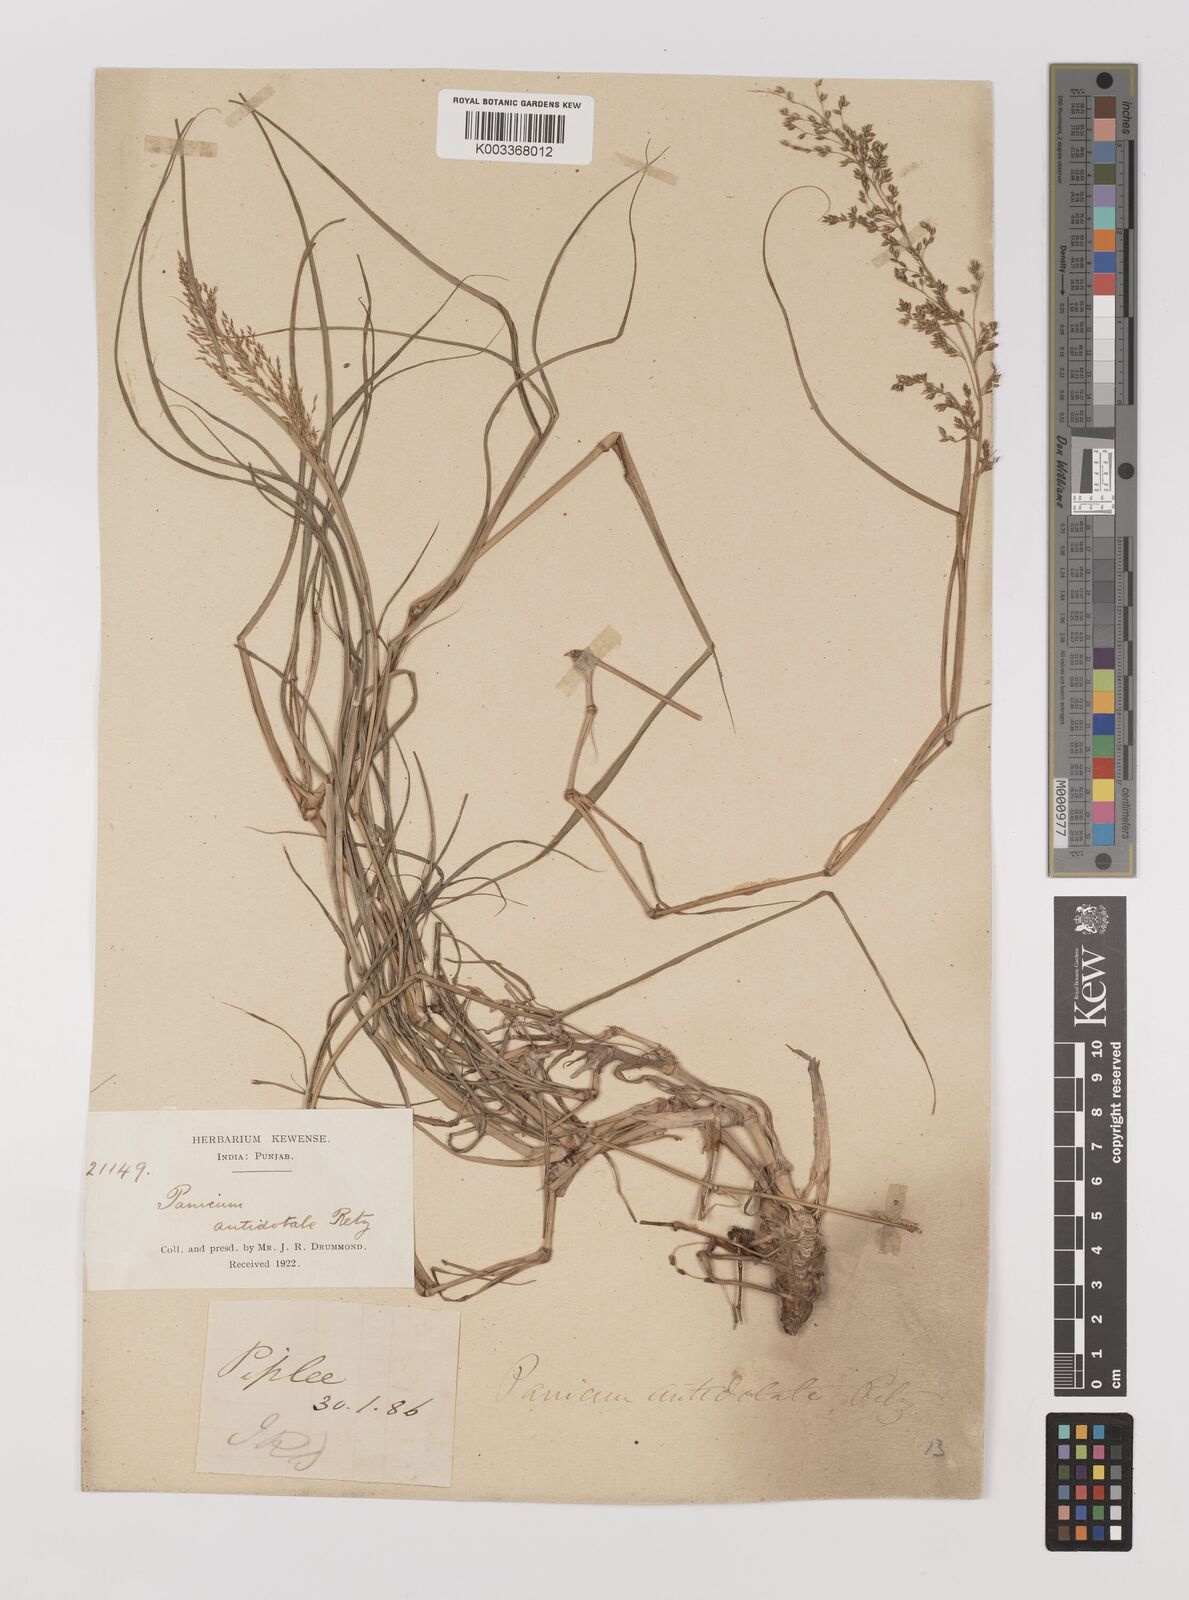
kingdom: Plantae
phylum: Tracheophyta
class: Liliopsida
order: Poales
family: Poaceae
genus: Panicum
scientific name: Panicum antidotale
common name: Blue panicum
